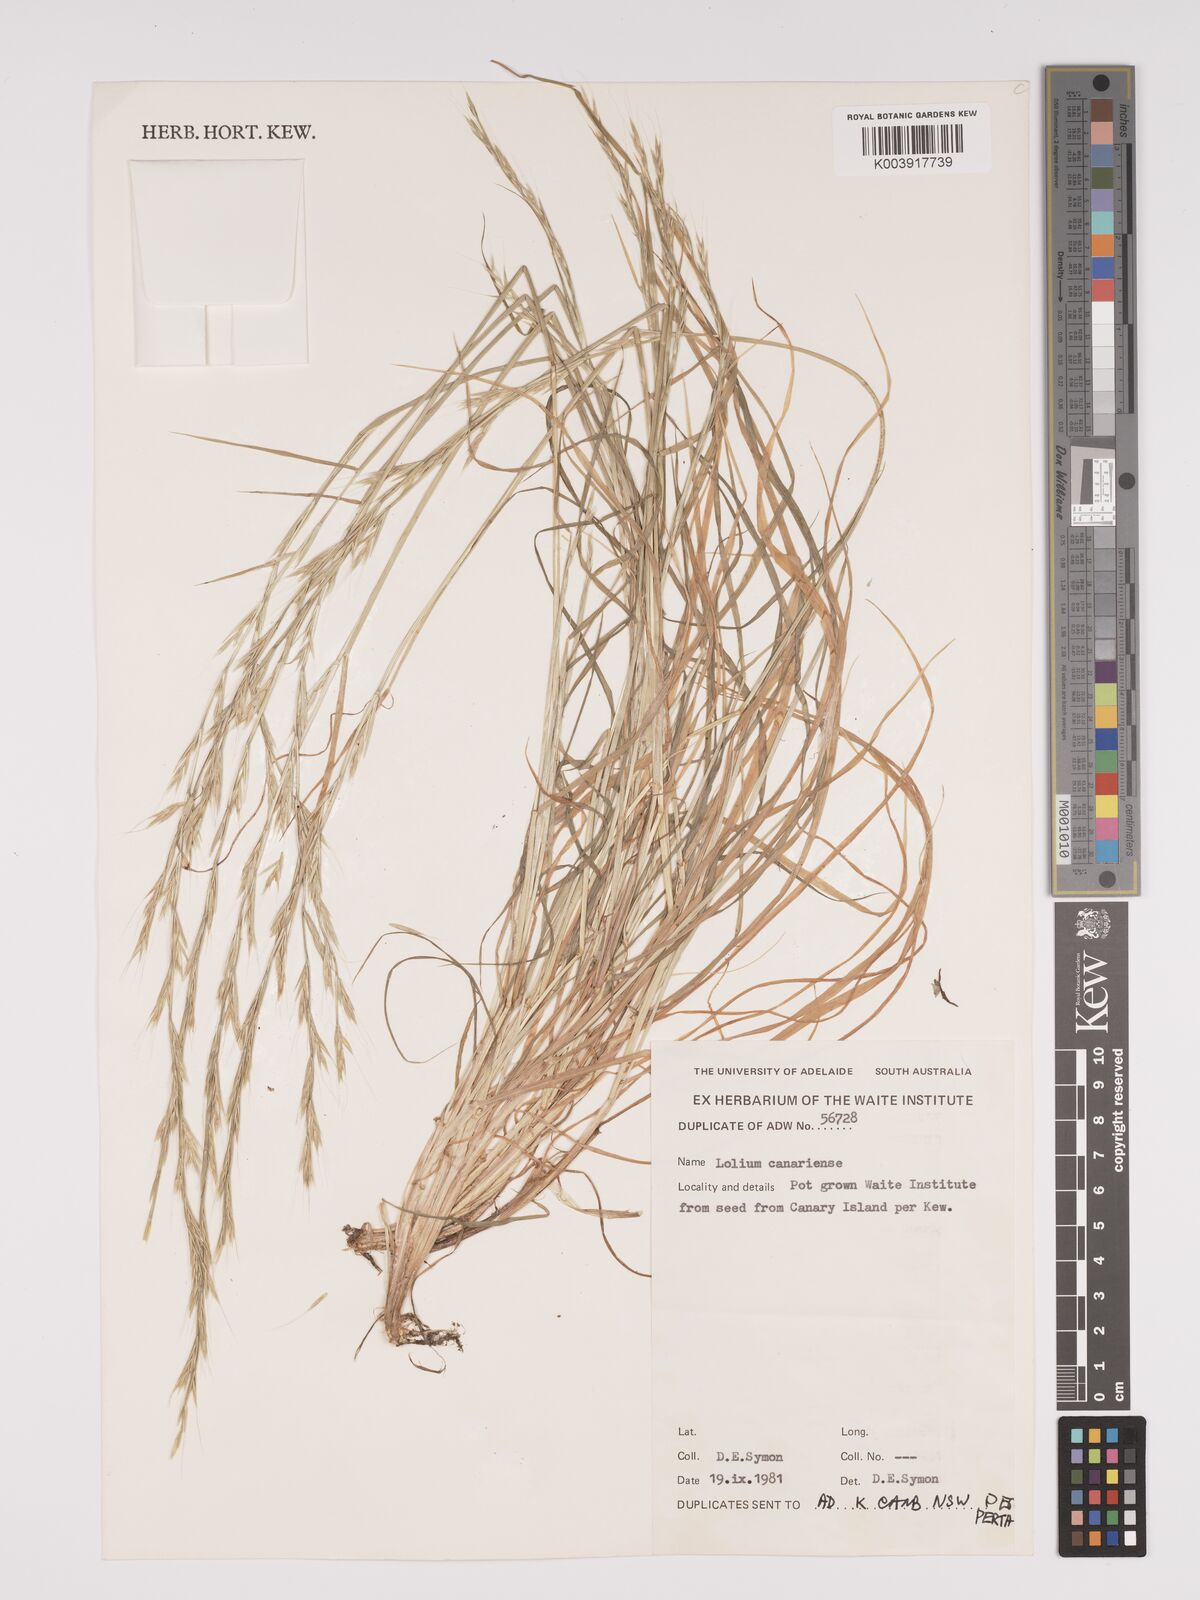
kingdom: Plantae
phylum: Tracheophyta
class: Liliopsida
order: Poales
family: Poaceae
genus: Lolium
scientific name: Lolium canariense
